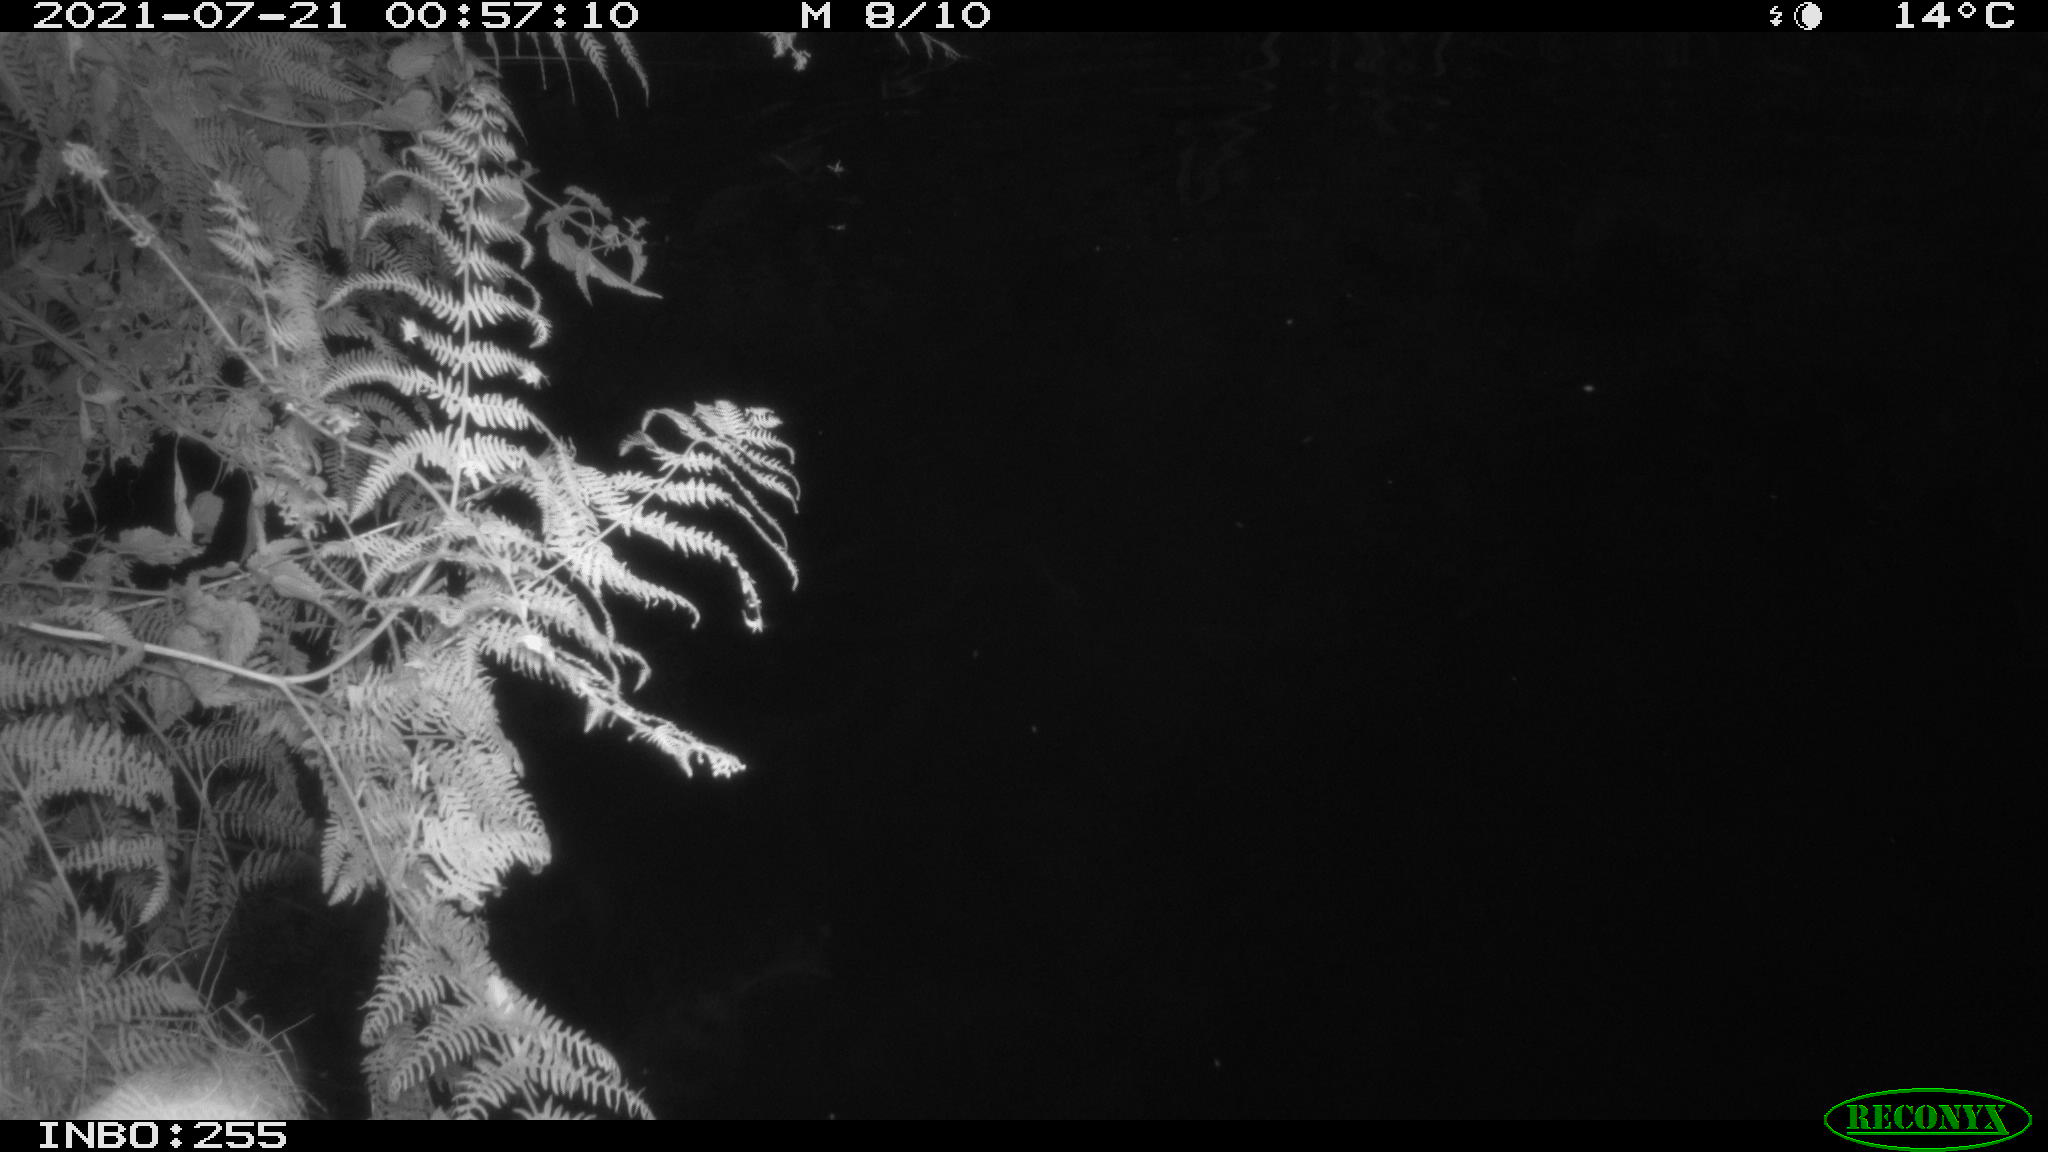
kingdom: Animalia
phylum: Chordata
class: Mammalia
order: Rodentia
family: Muridae
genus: Rattus
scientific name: Rattus norvegicus
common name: Brown rat
